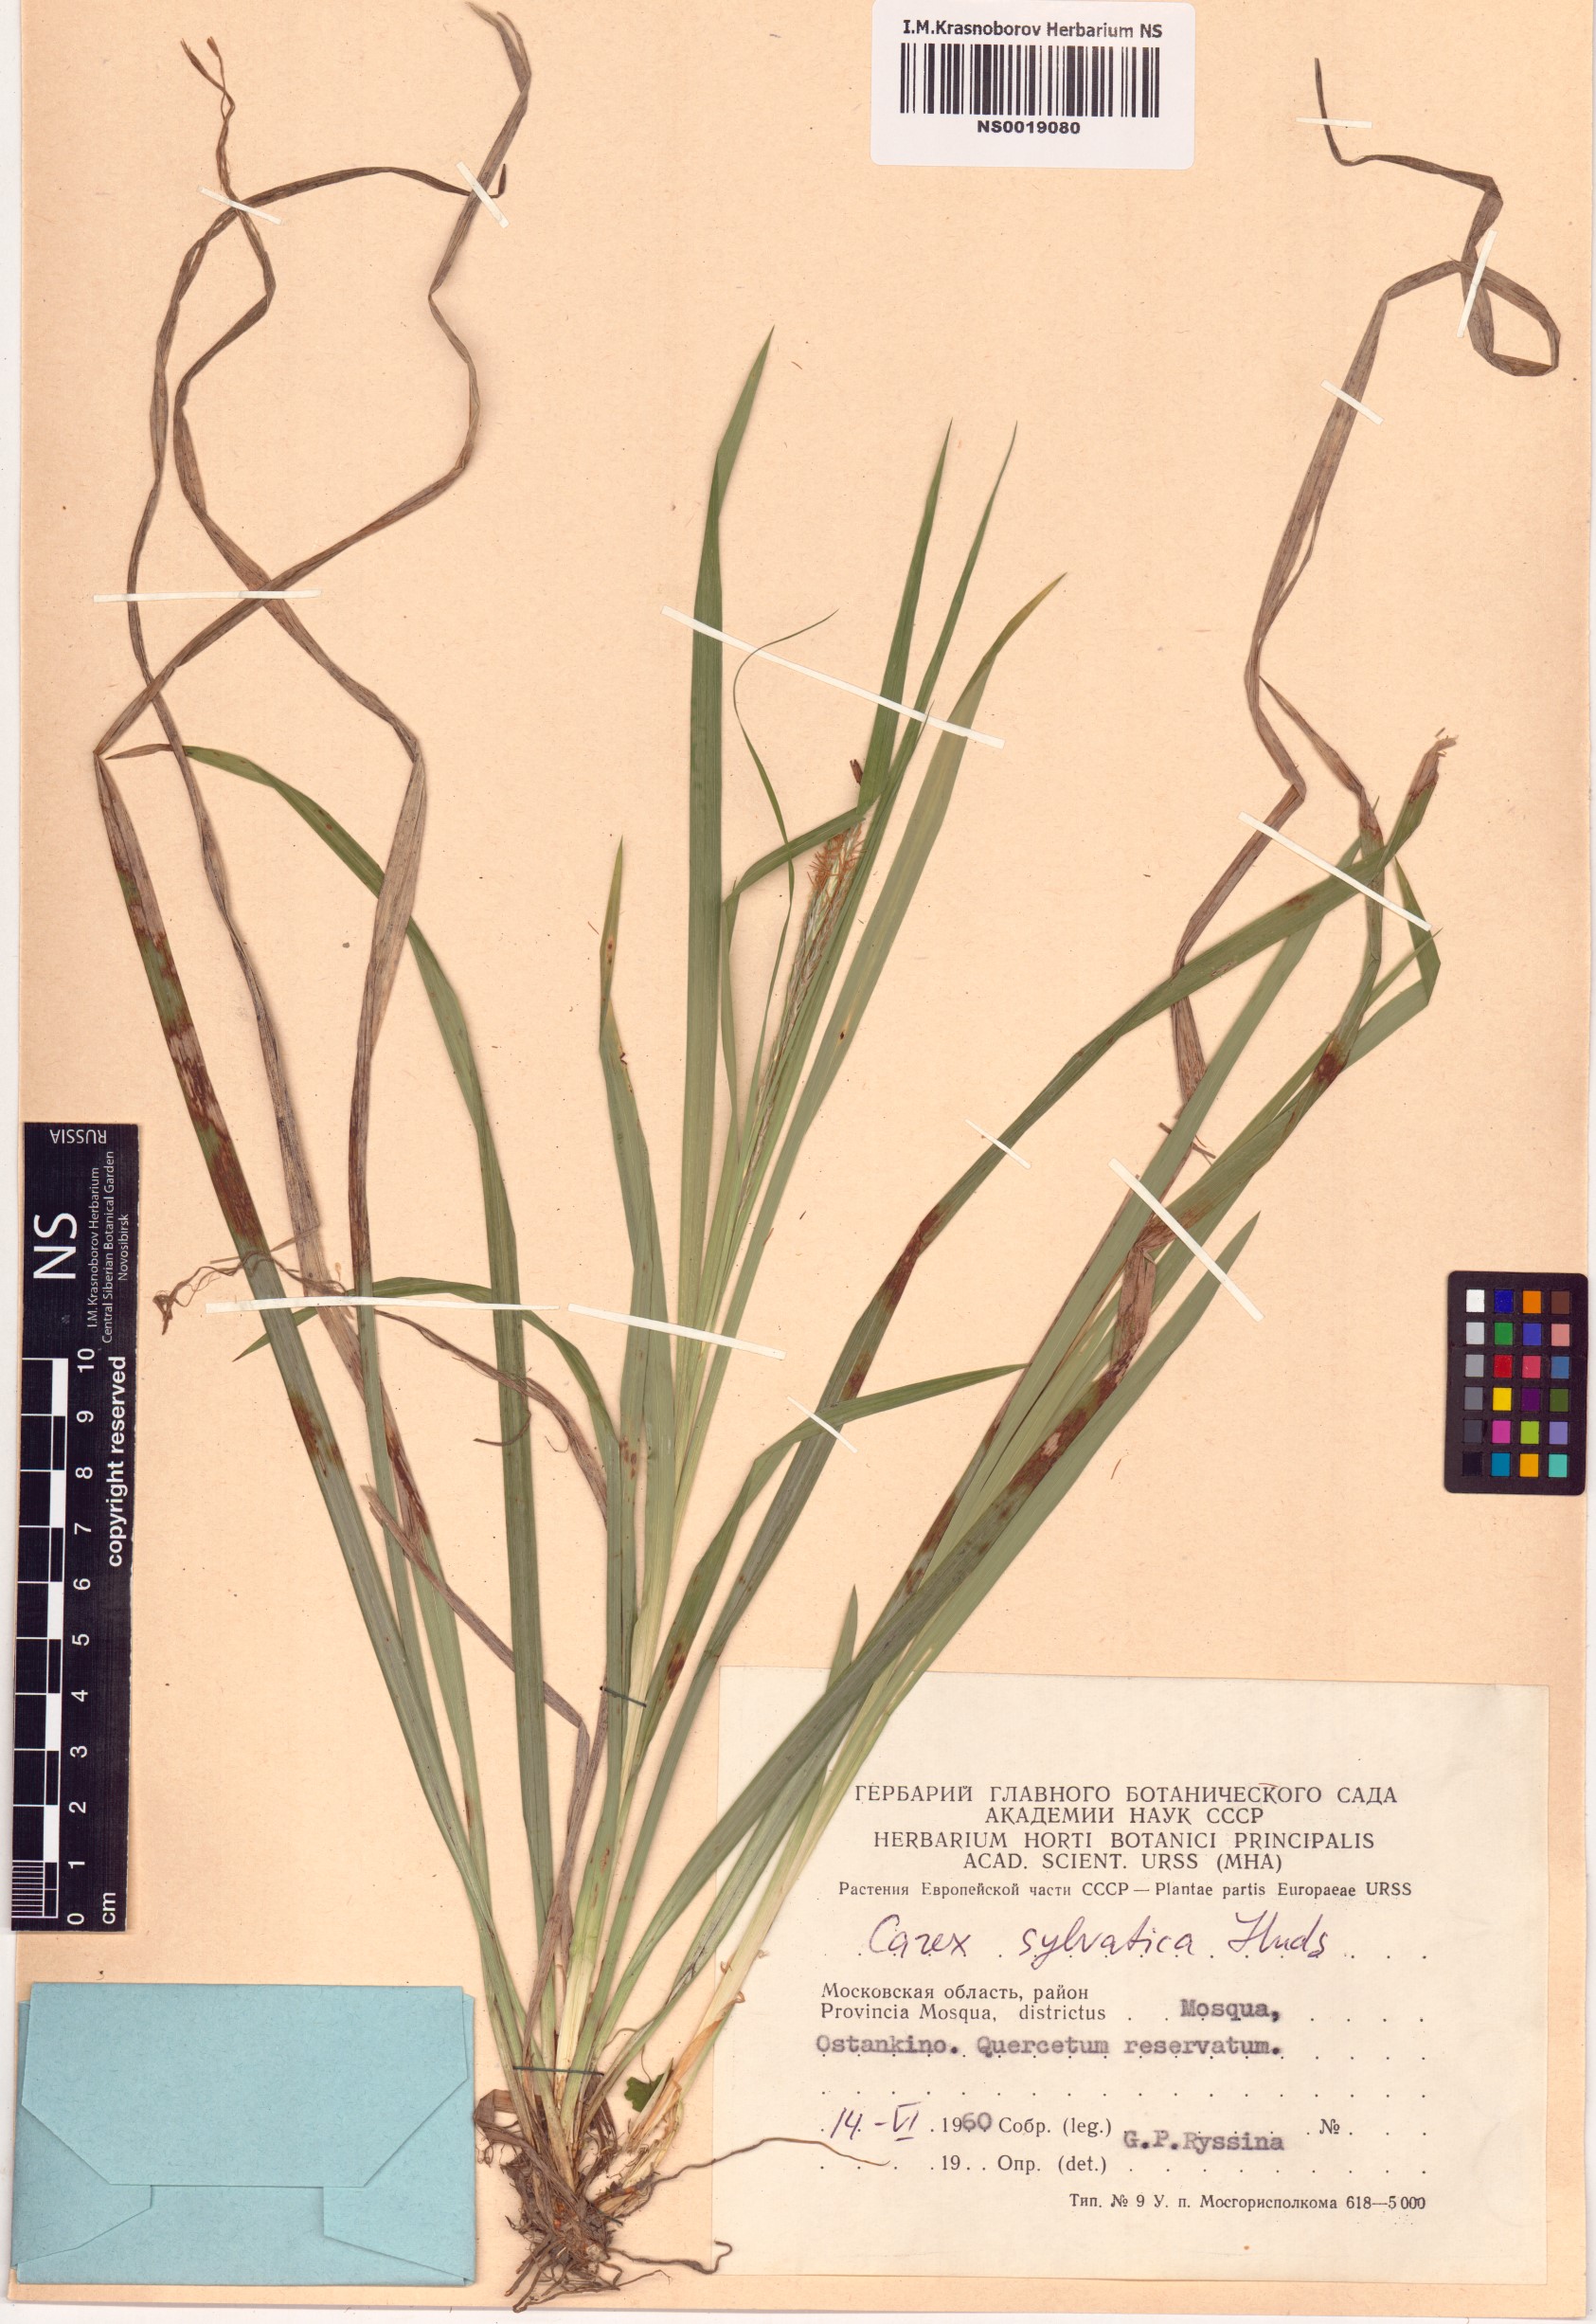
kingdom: Plantae
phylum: Tracheophyta
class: Liliopsida
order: Poales
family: Cyperaceae
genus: Carex
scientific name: Carex sylvatica
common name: Wood-sedge
